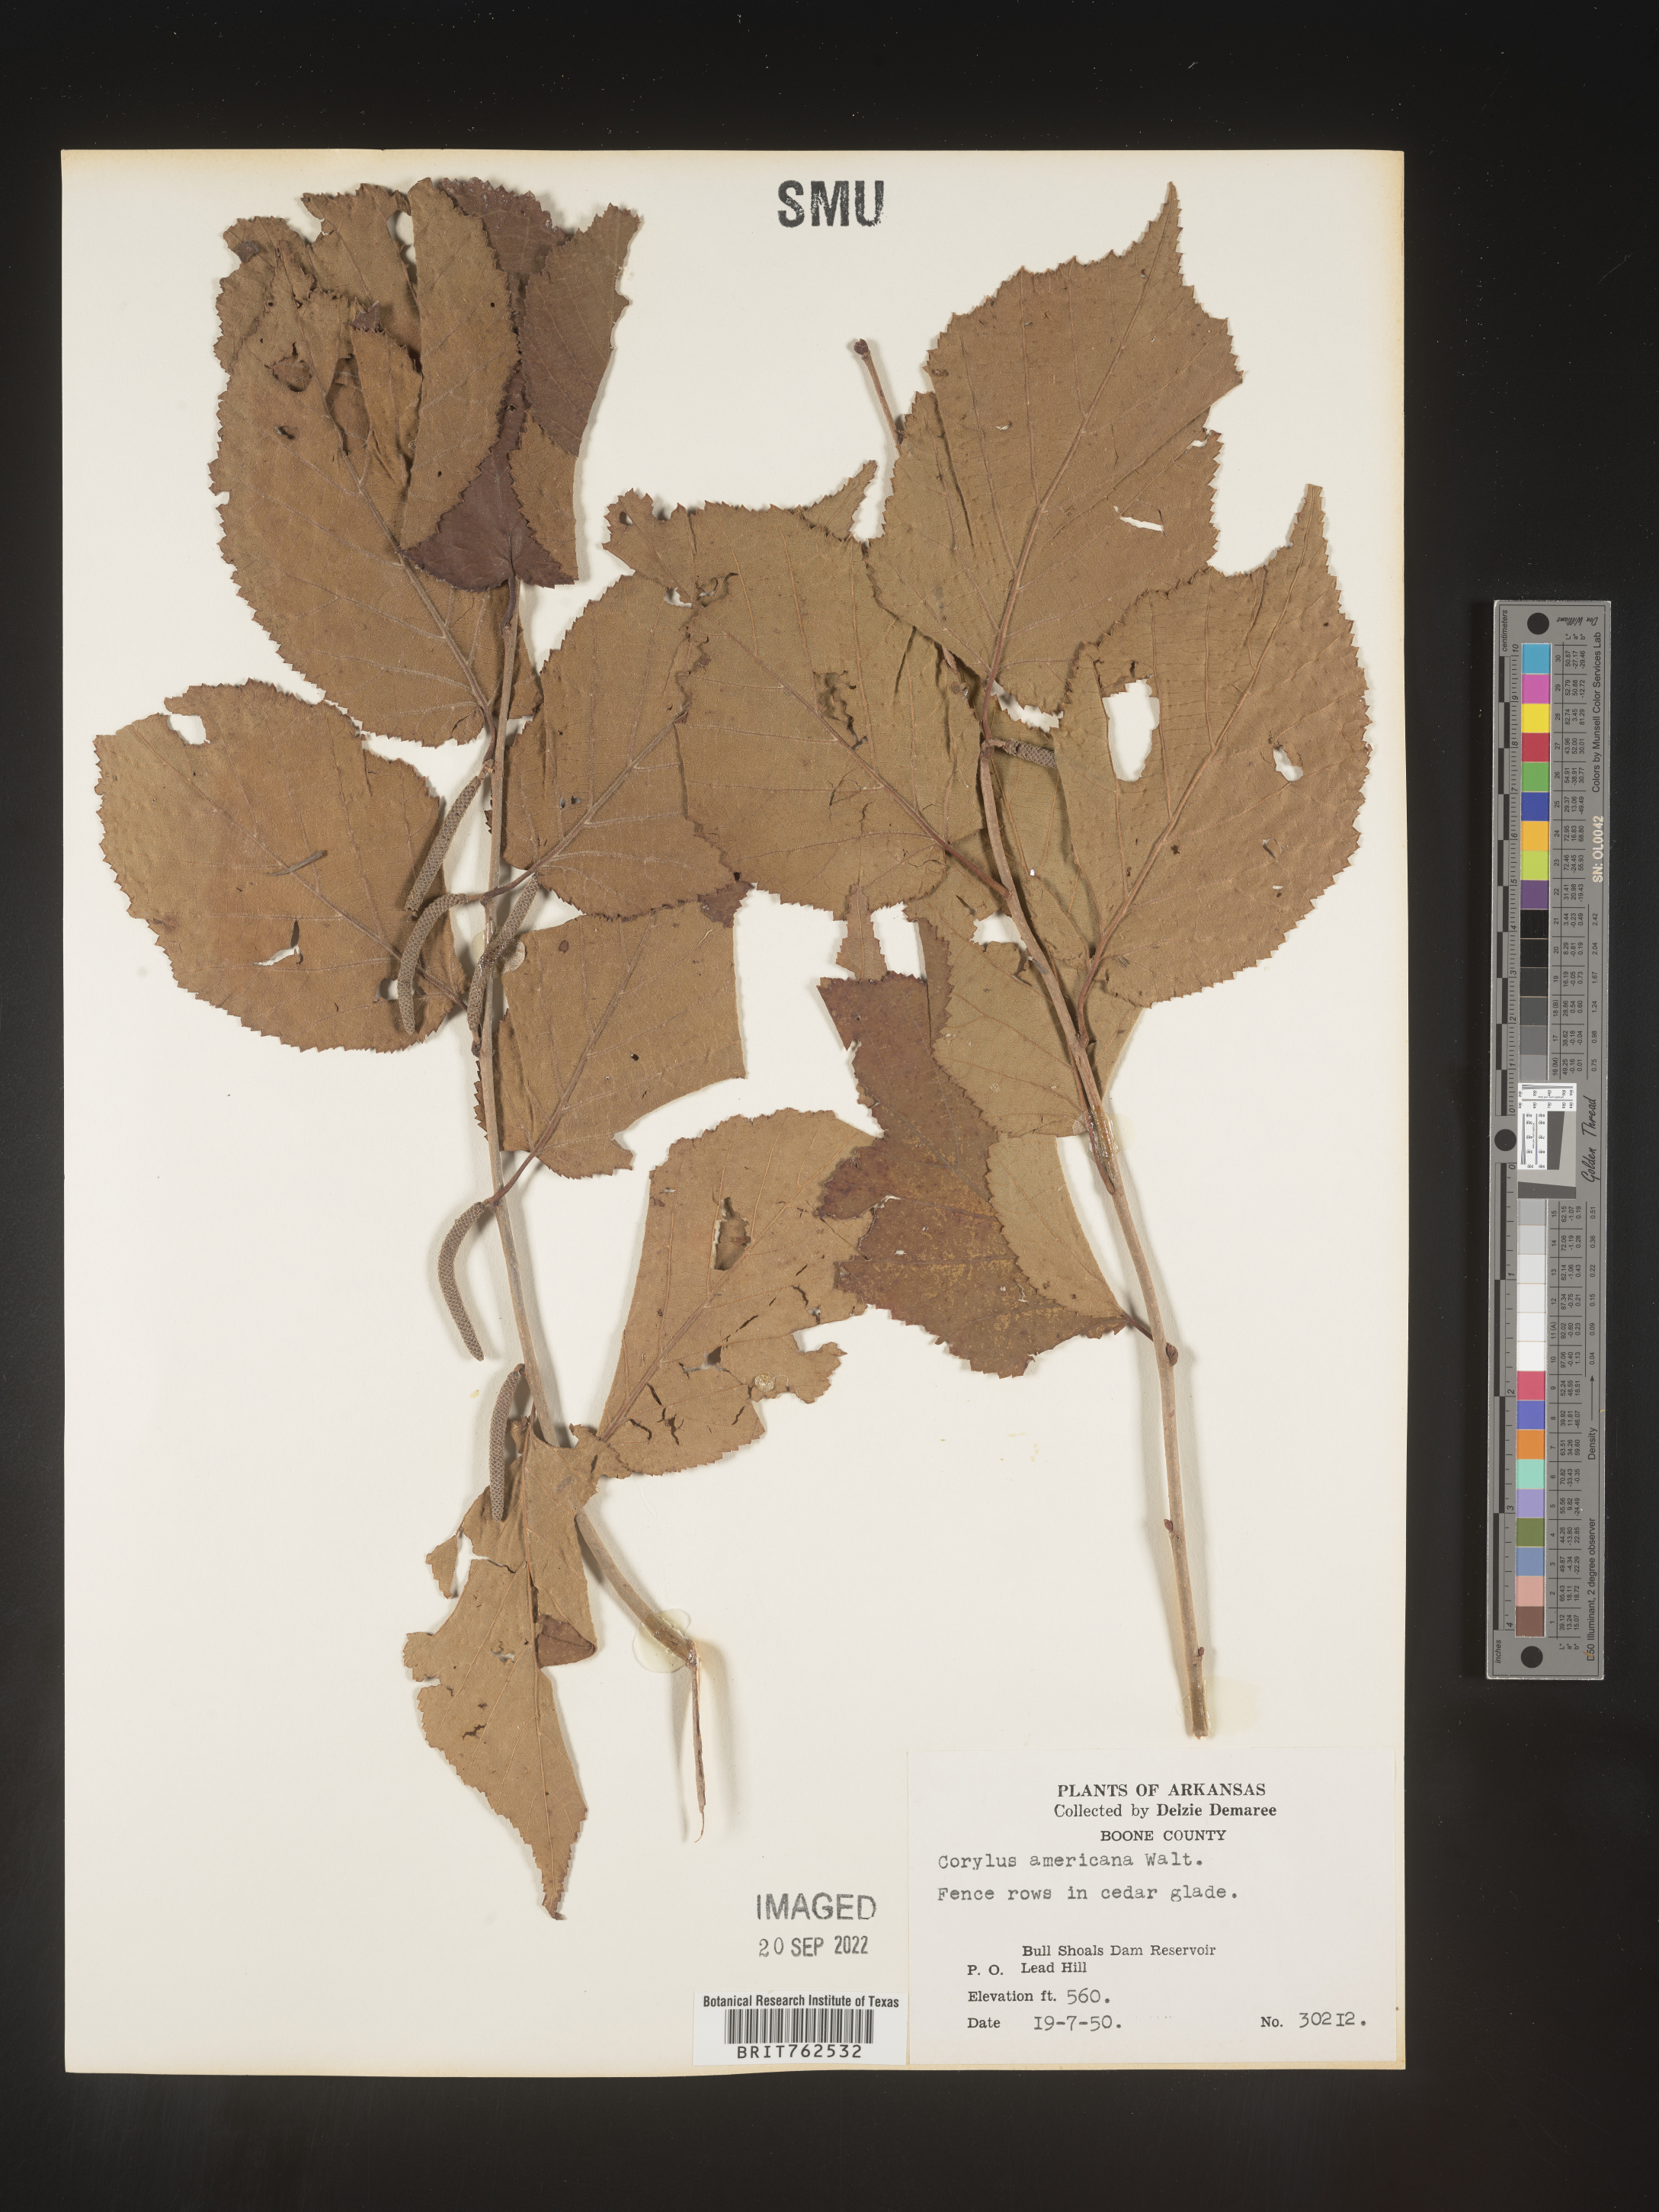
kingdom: Plantae
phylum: Tracheophyta
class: Magnoliopsida
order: Fagales
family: Betulaceae
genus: Corylus
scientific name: Corylus americana
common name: American hazel
